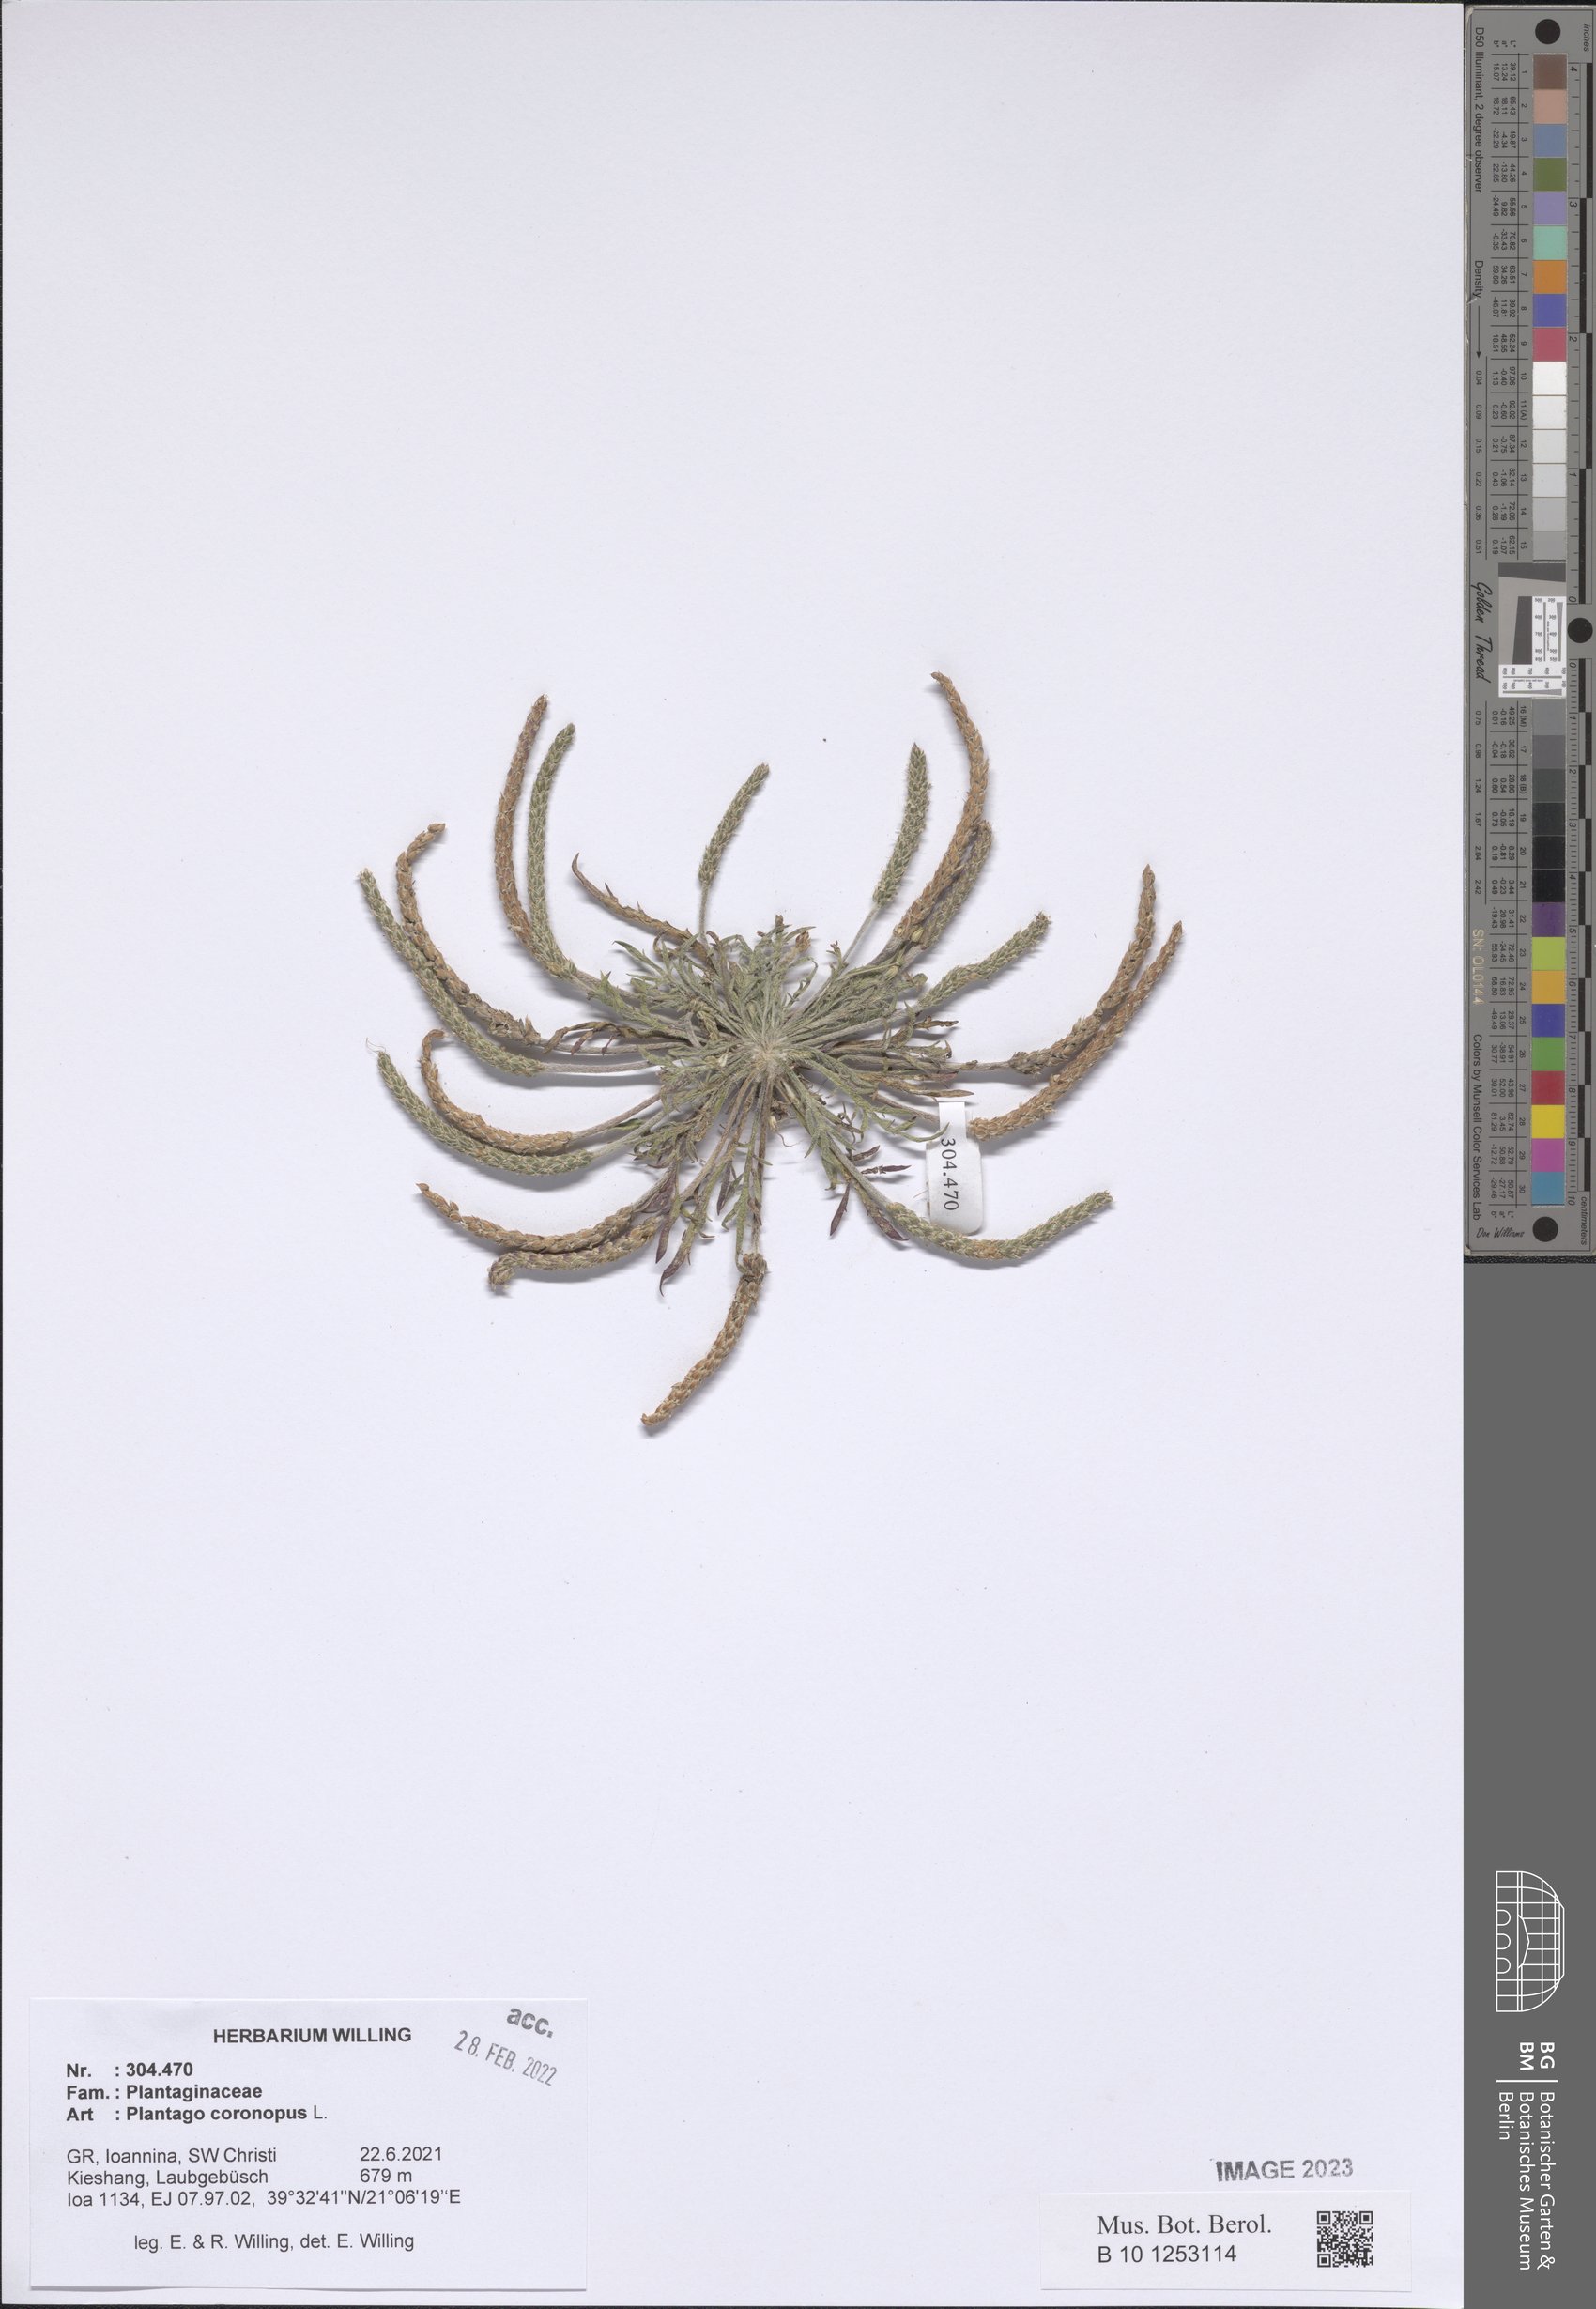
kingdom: Plantae
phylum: Tracheophyta
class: Magnoliopsida
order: Lamiales
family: Plantaginaceae
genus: Plantago
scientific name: Plantago coronopus
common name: Buck's-horn plantain
